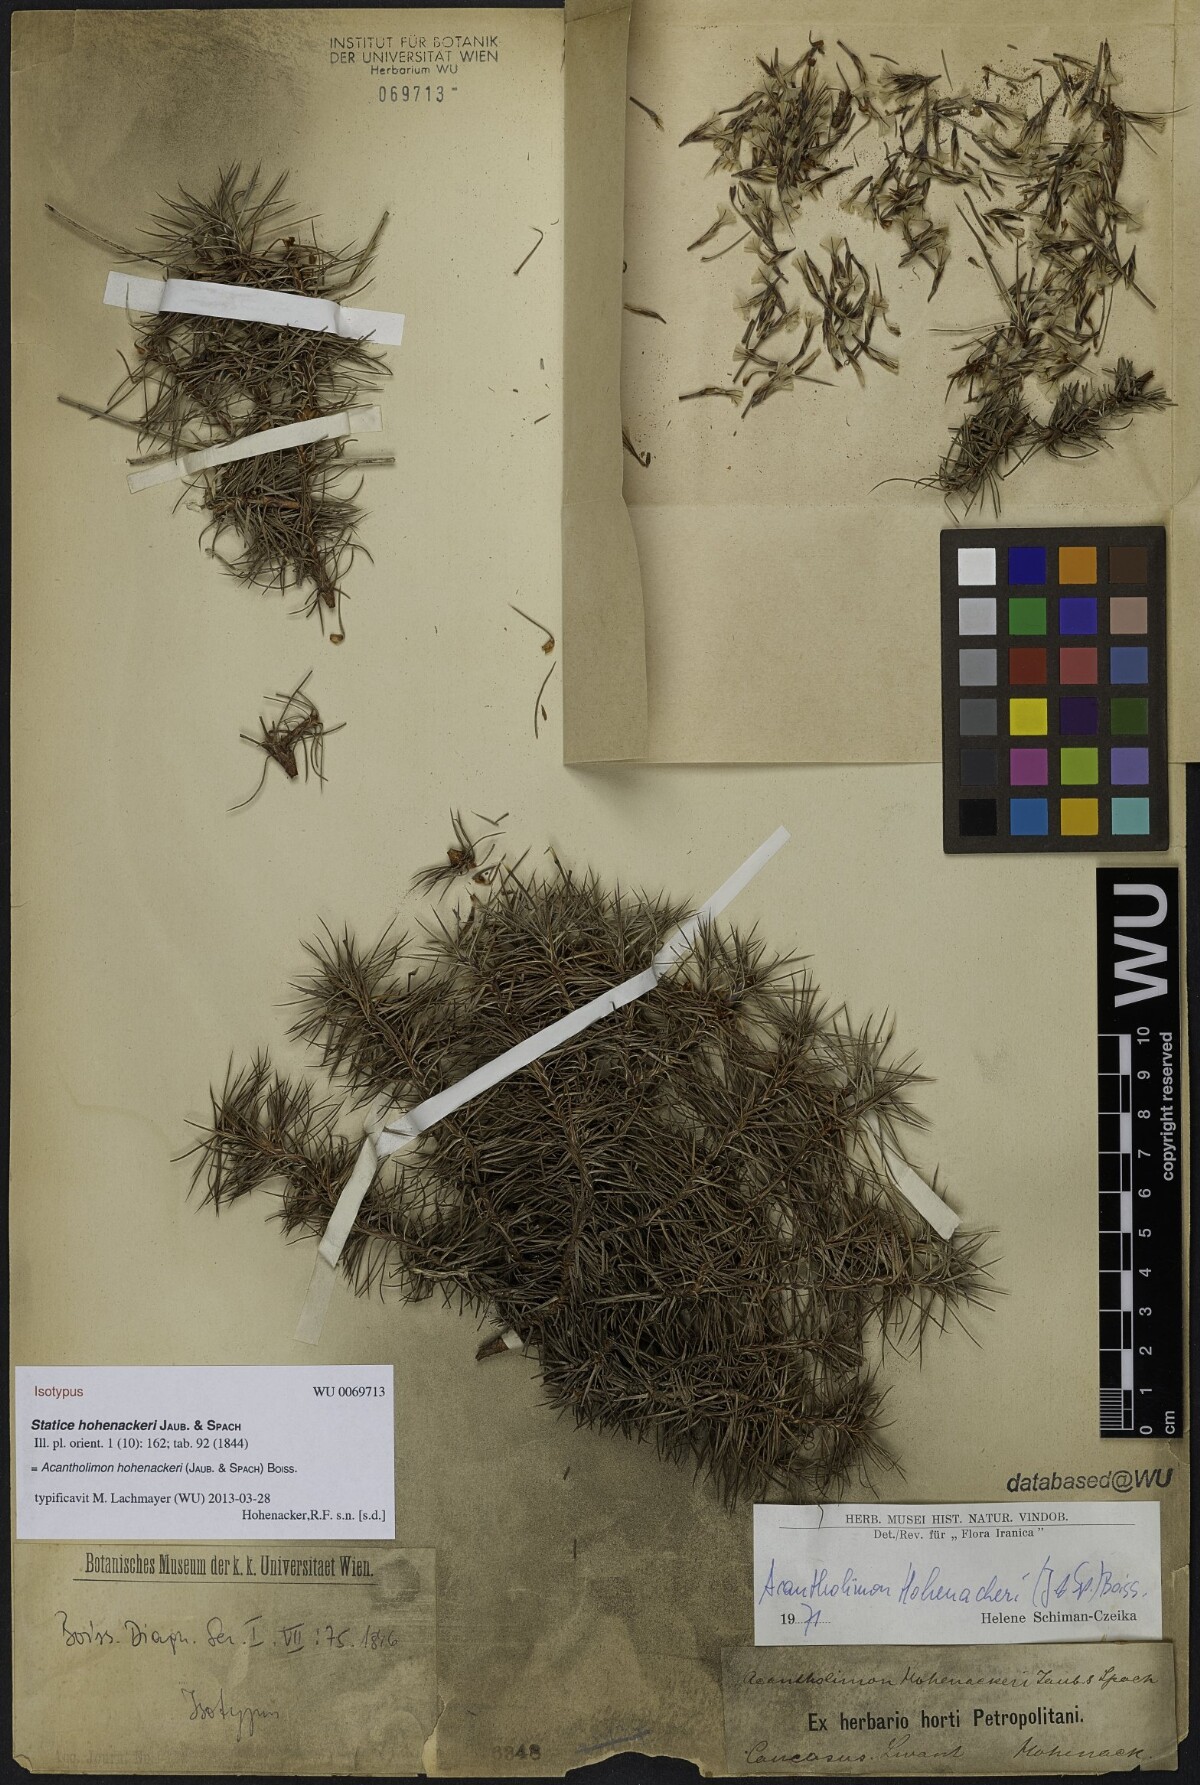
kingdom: Plantae
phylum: Tracheophyta
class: Magnoliopsida
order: Caryophyllales
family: Plumbaginaceae
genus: Acantholimon
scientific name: Acantholimon hohenackeri
